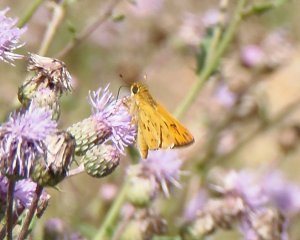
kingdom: Animalia
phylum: Arthropoda
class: Insecta
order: Lepidoptera
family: Hesperiidae
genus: Hylephila
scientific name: Hylephila phyleus
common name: Fiery Skipper
